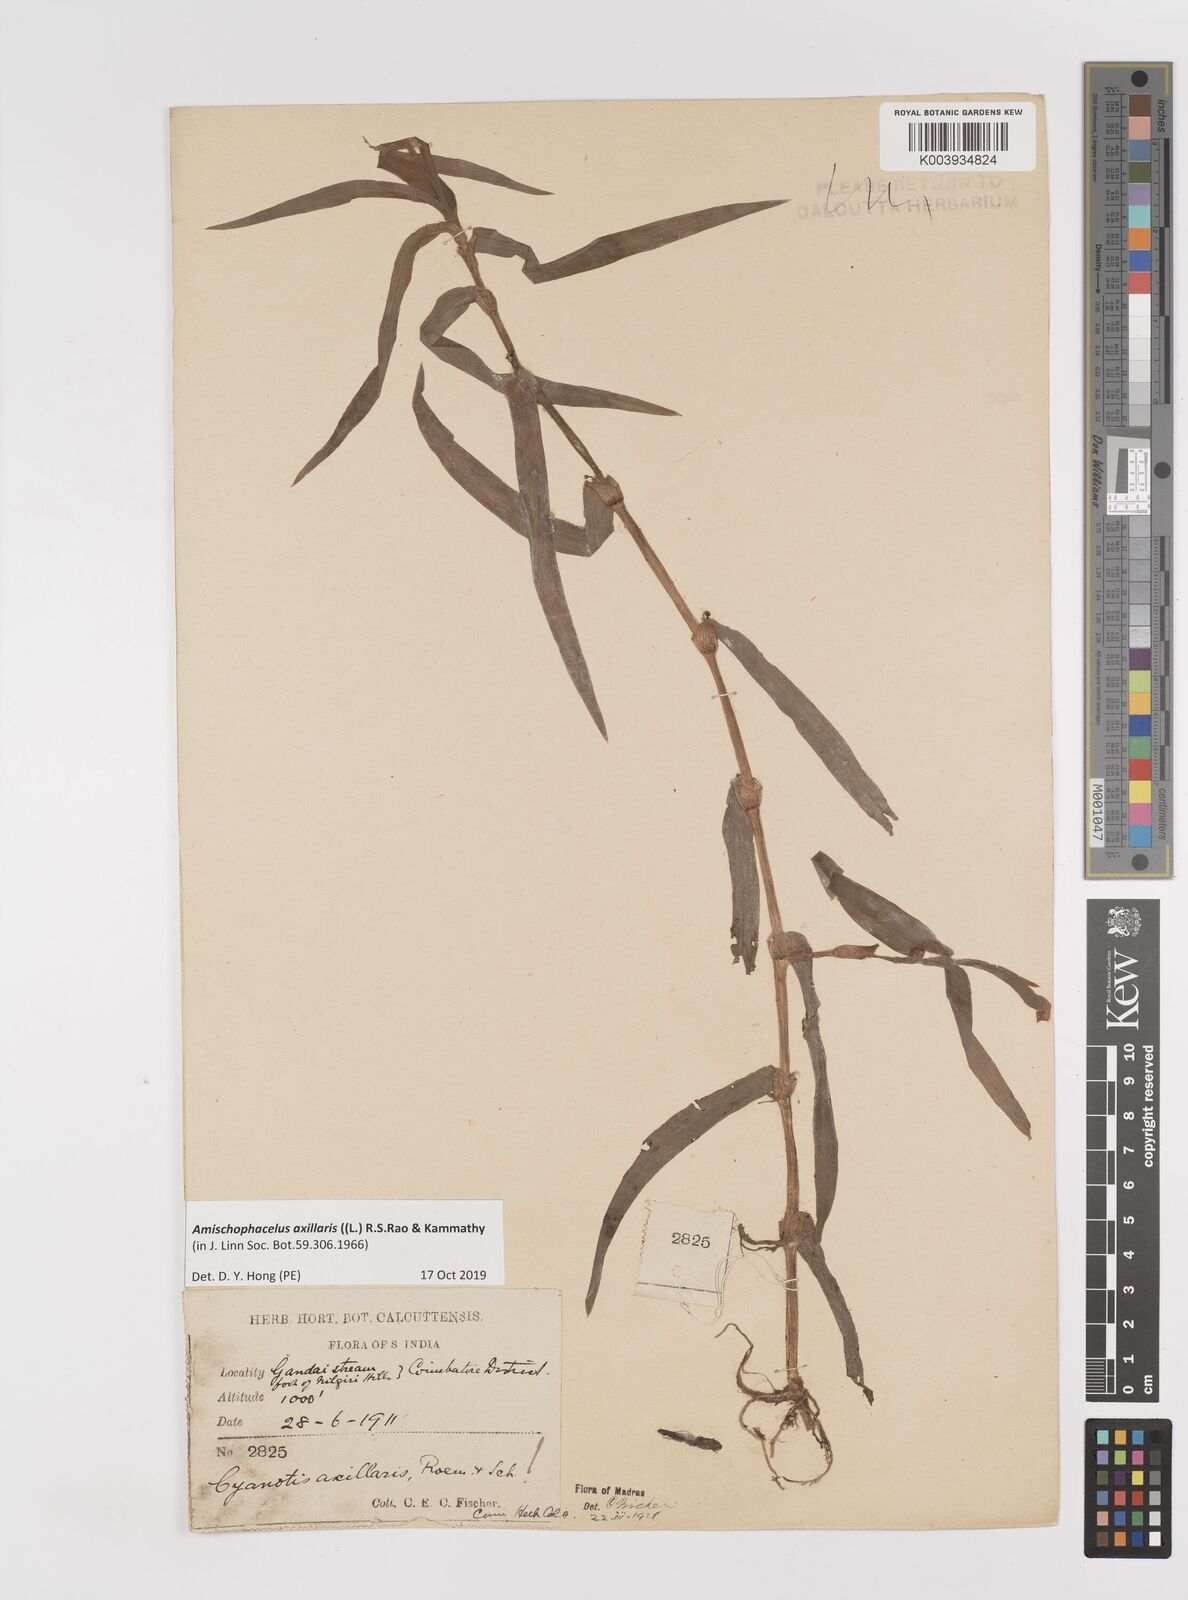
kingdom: Plantae
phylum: Tracheophyta
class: Liliopsida
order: Commelinales
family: Commelinaceae
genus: Cyanotis
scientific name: Cyanotis axillaris
